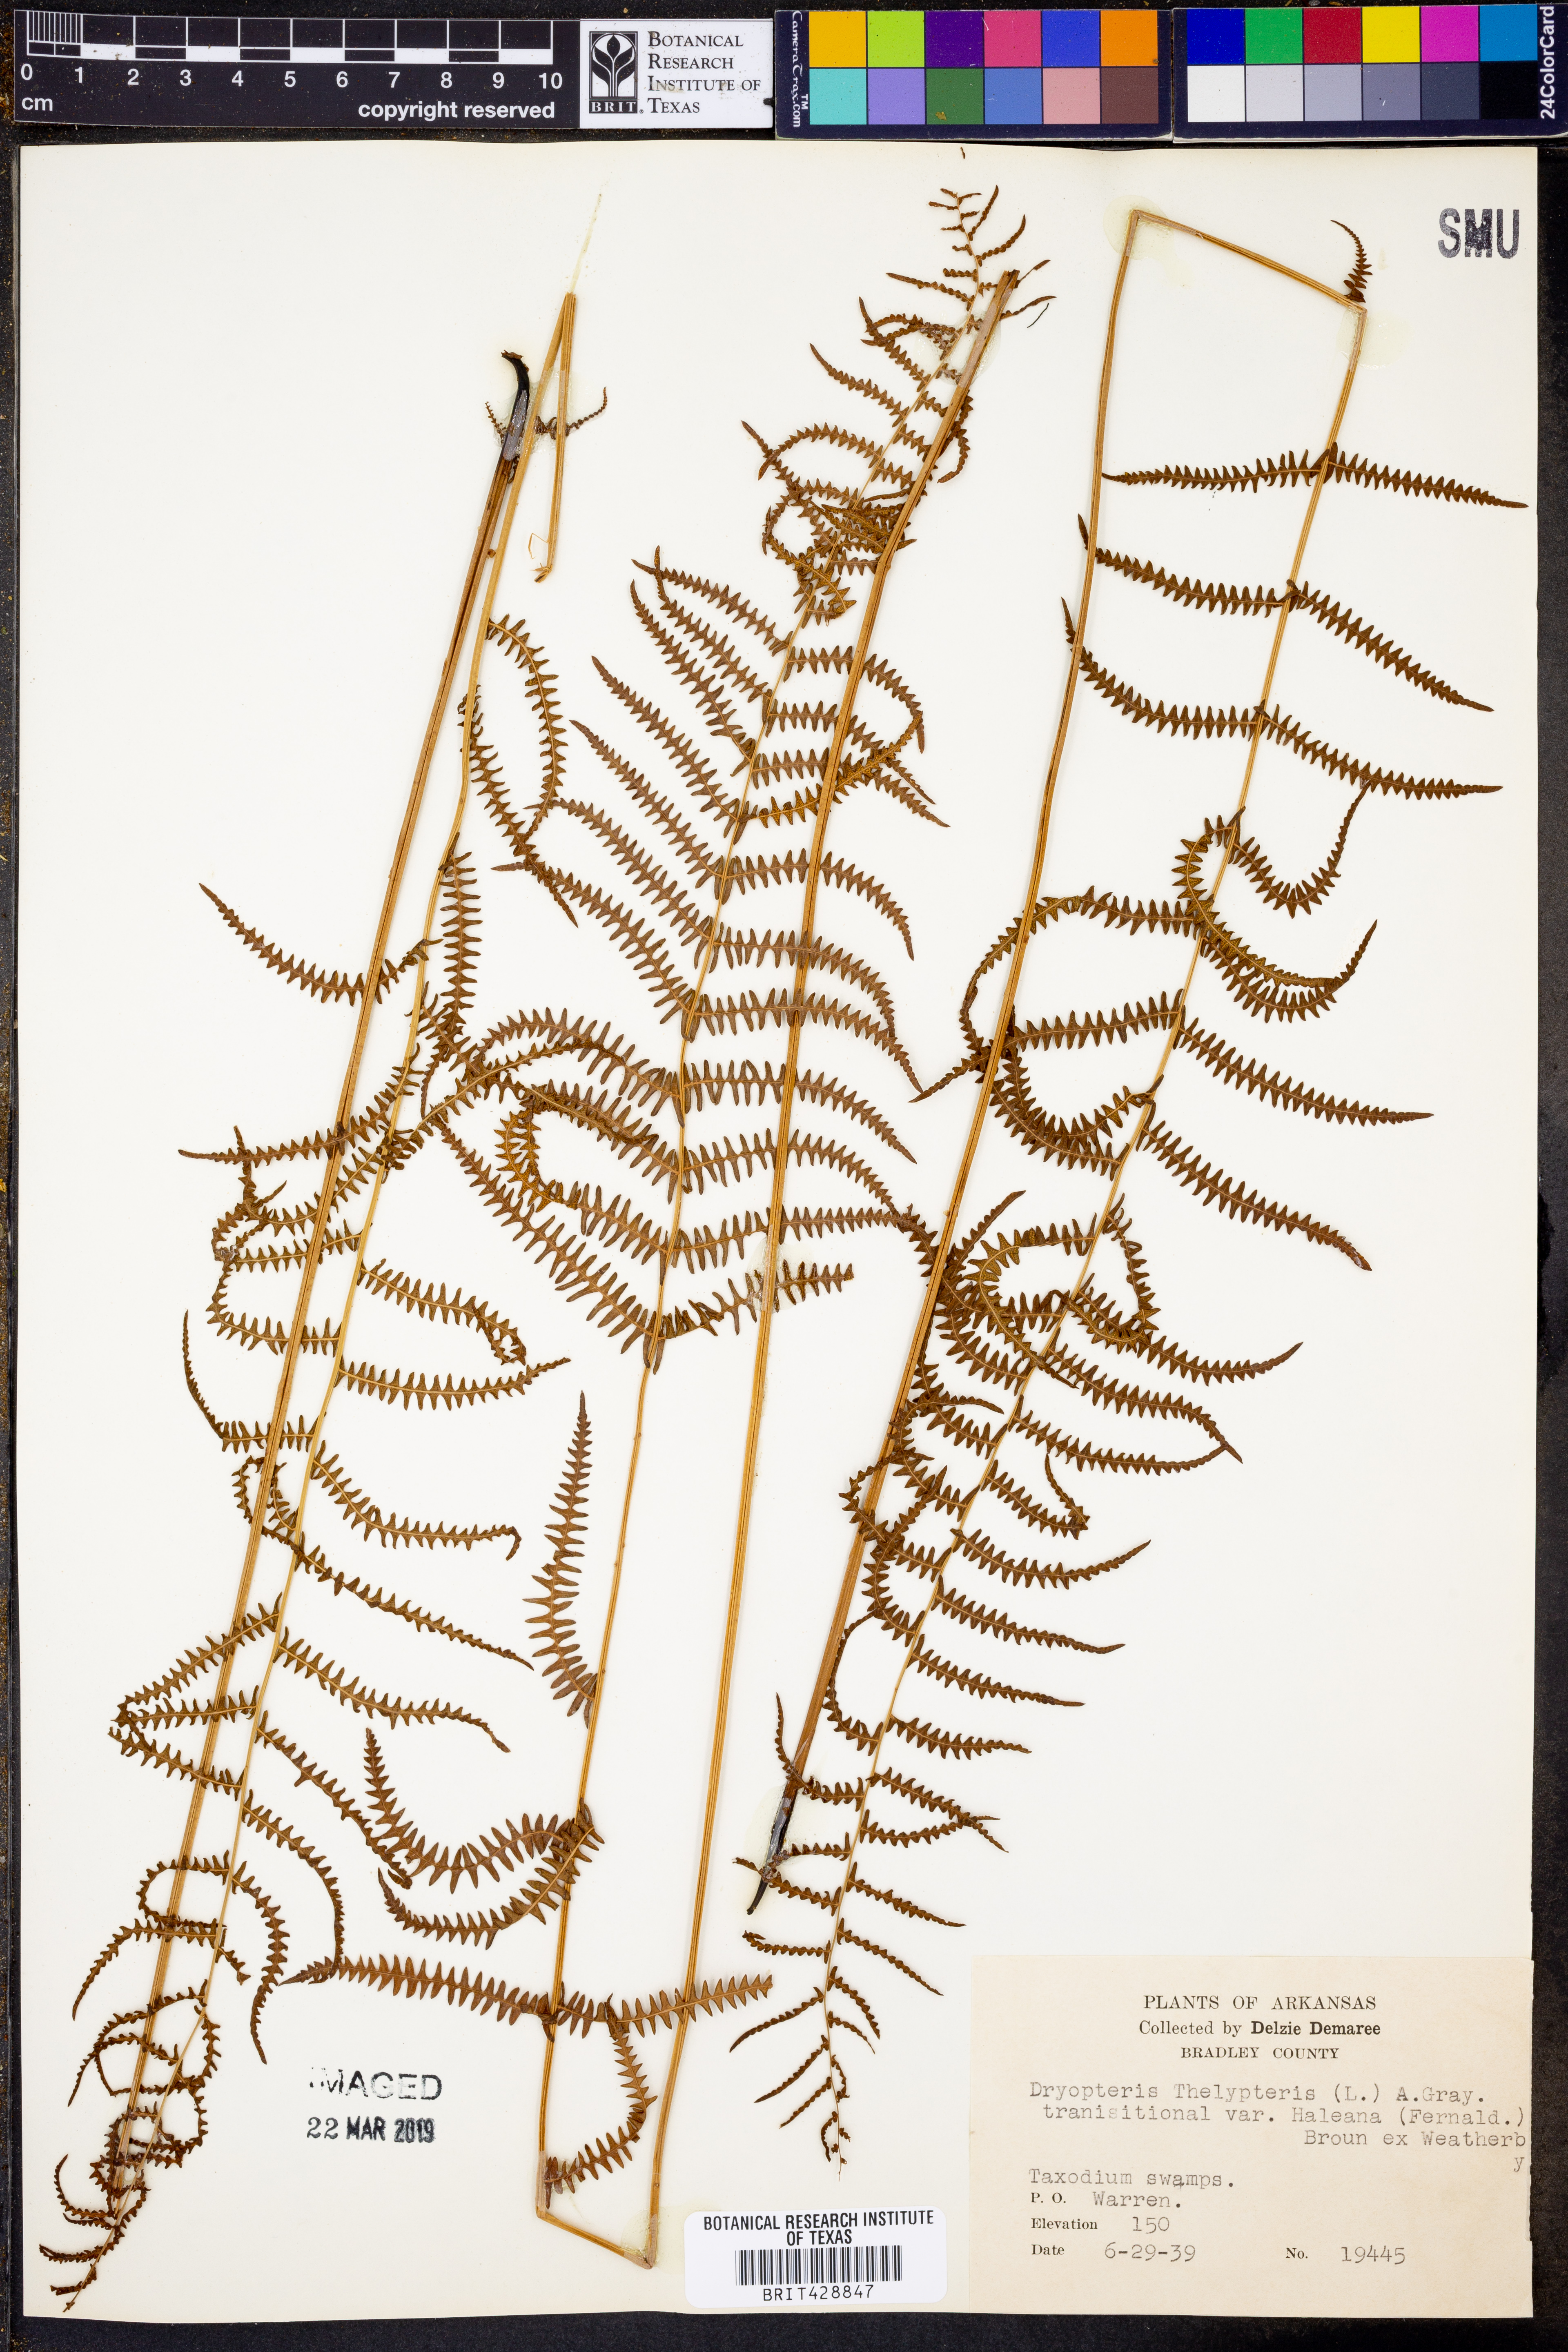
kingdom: Plantae
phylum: Tracheophyta
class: Polypodiopsida
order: Polypodiales
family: Thelypteridaceae
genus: Thelypteris
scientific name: Thelypteris palustris
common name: Marsh fern
